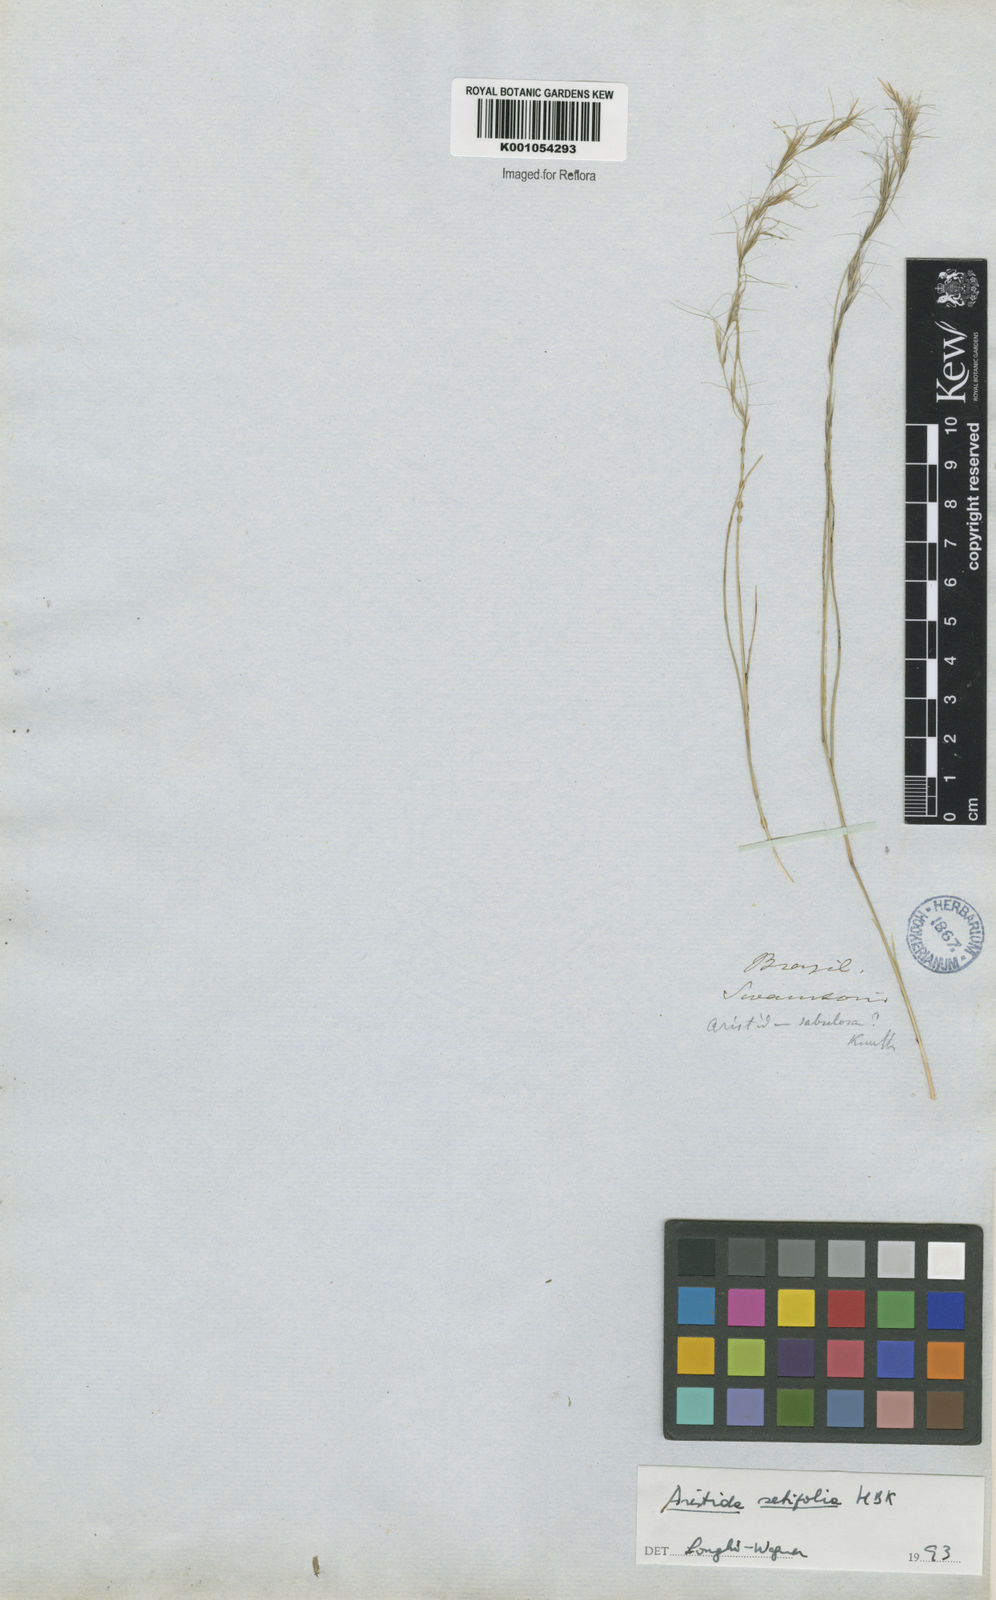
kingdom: Plantae
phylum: Tracheophyta
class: Liliopsida
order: Poales
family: Poaceae
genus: Aristida
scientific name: Aristida setifolia
